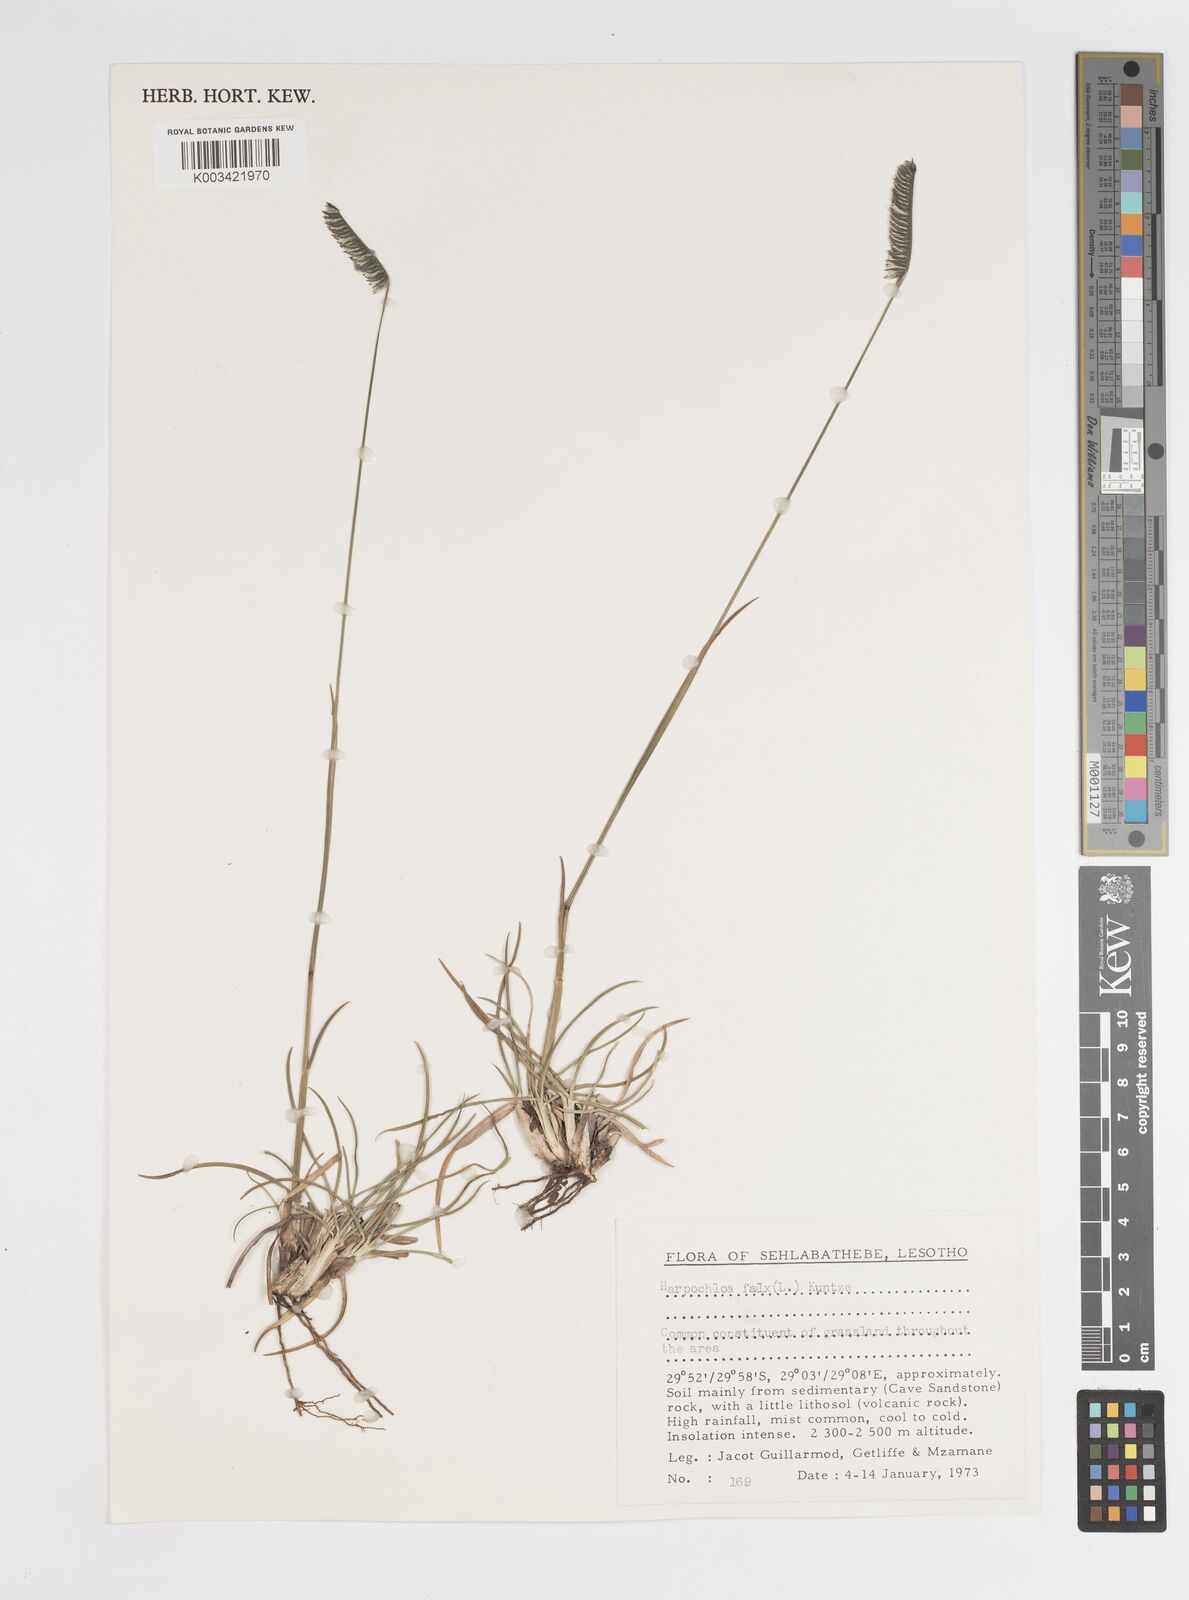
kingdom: Plantae
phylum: Tracheophyta
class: Liliopsida
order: Poales
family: Poaceae
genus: Harpochloa
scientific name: Harpochloa falx
